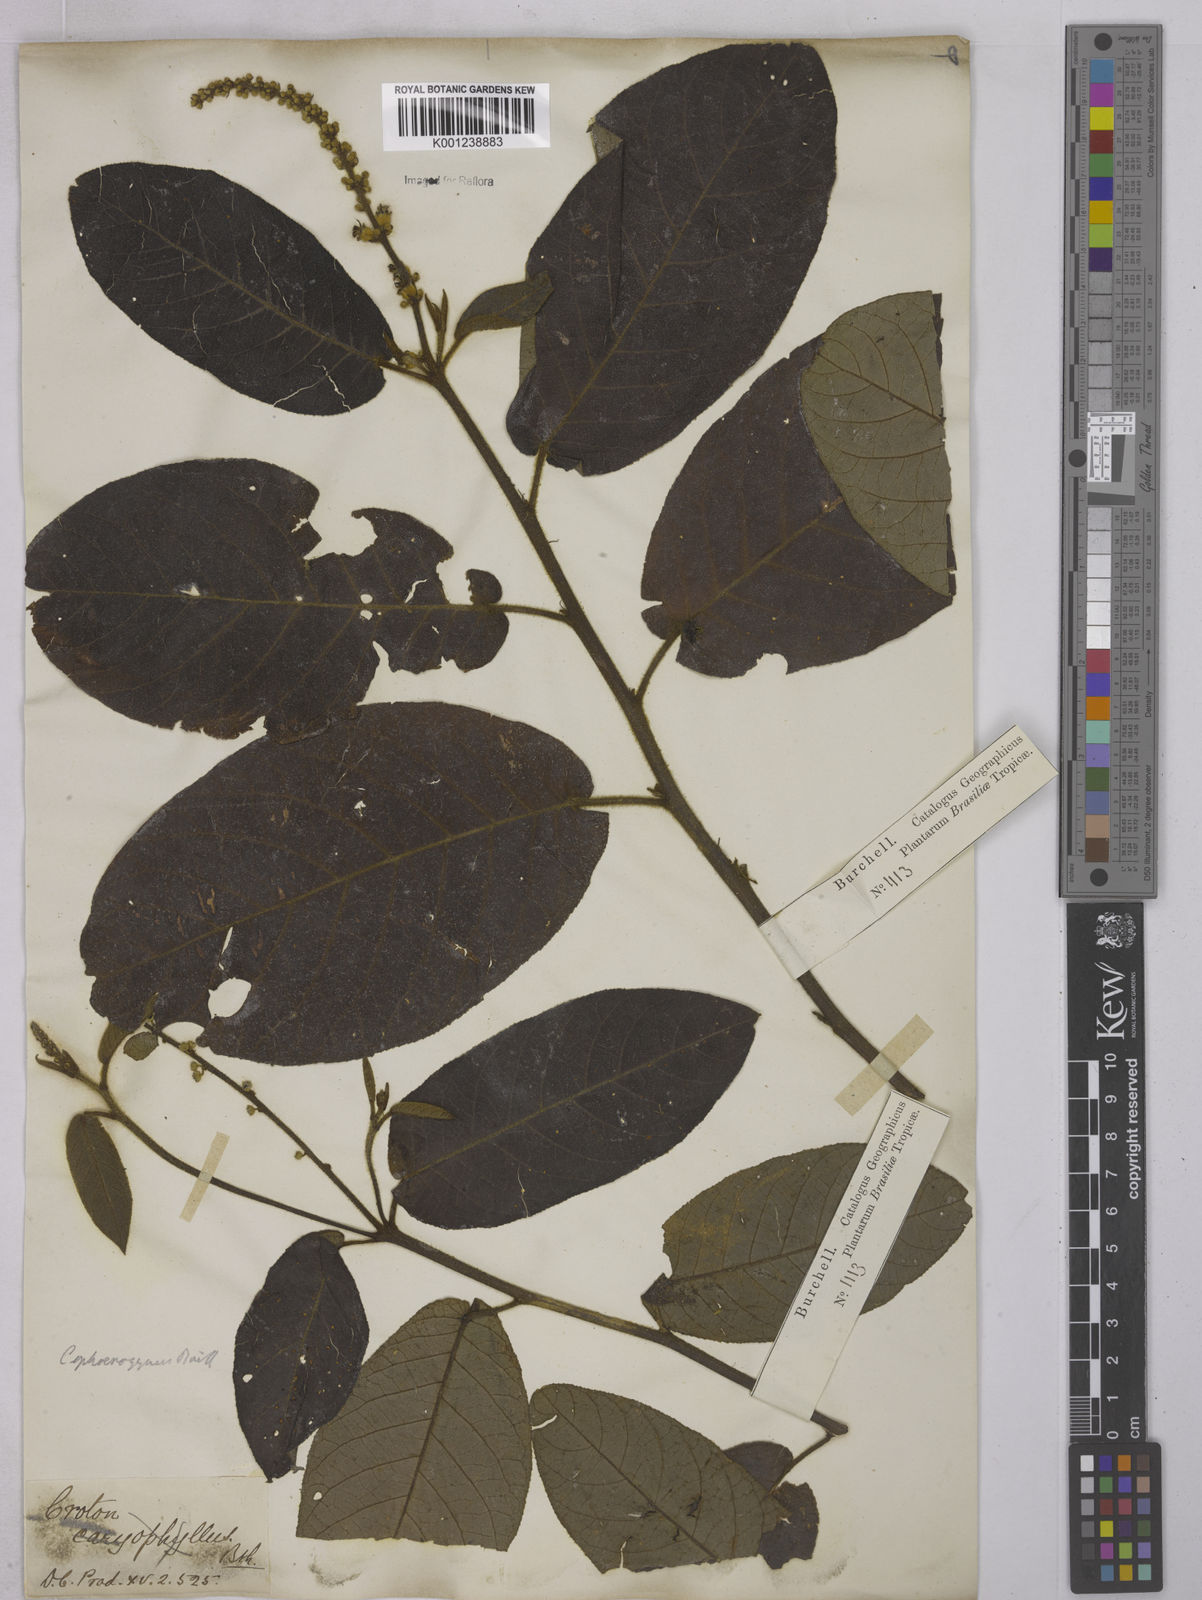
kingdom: Plantae
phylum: Tracheophyta
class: Magnoliopsida
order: Malpighiales
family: Euphorbiaceae
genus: Croton
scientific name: Croton sphaerogynus
